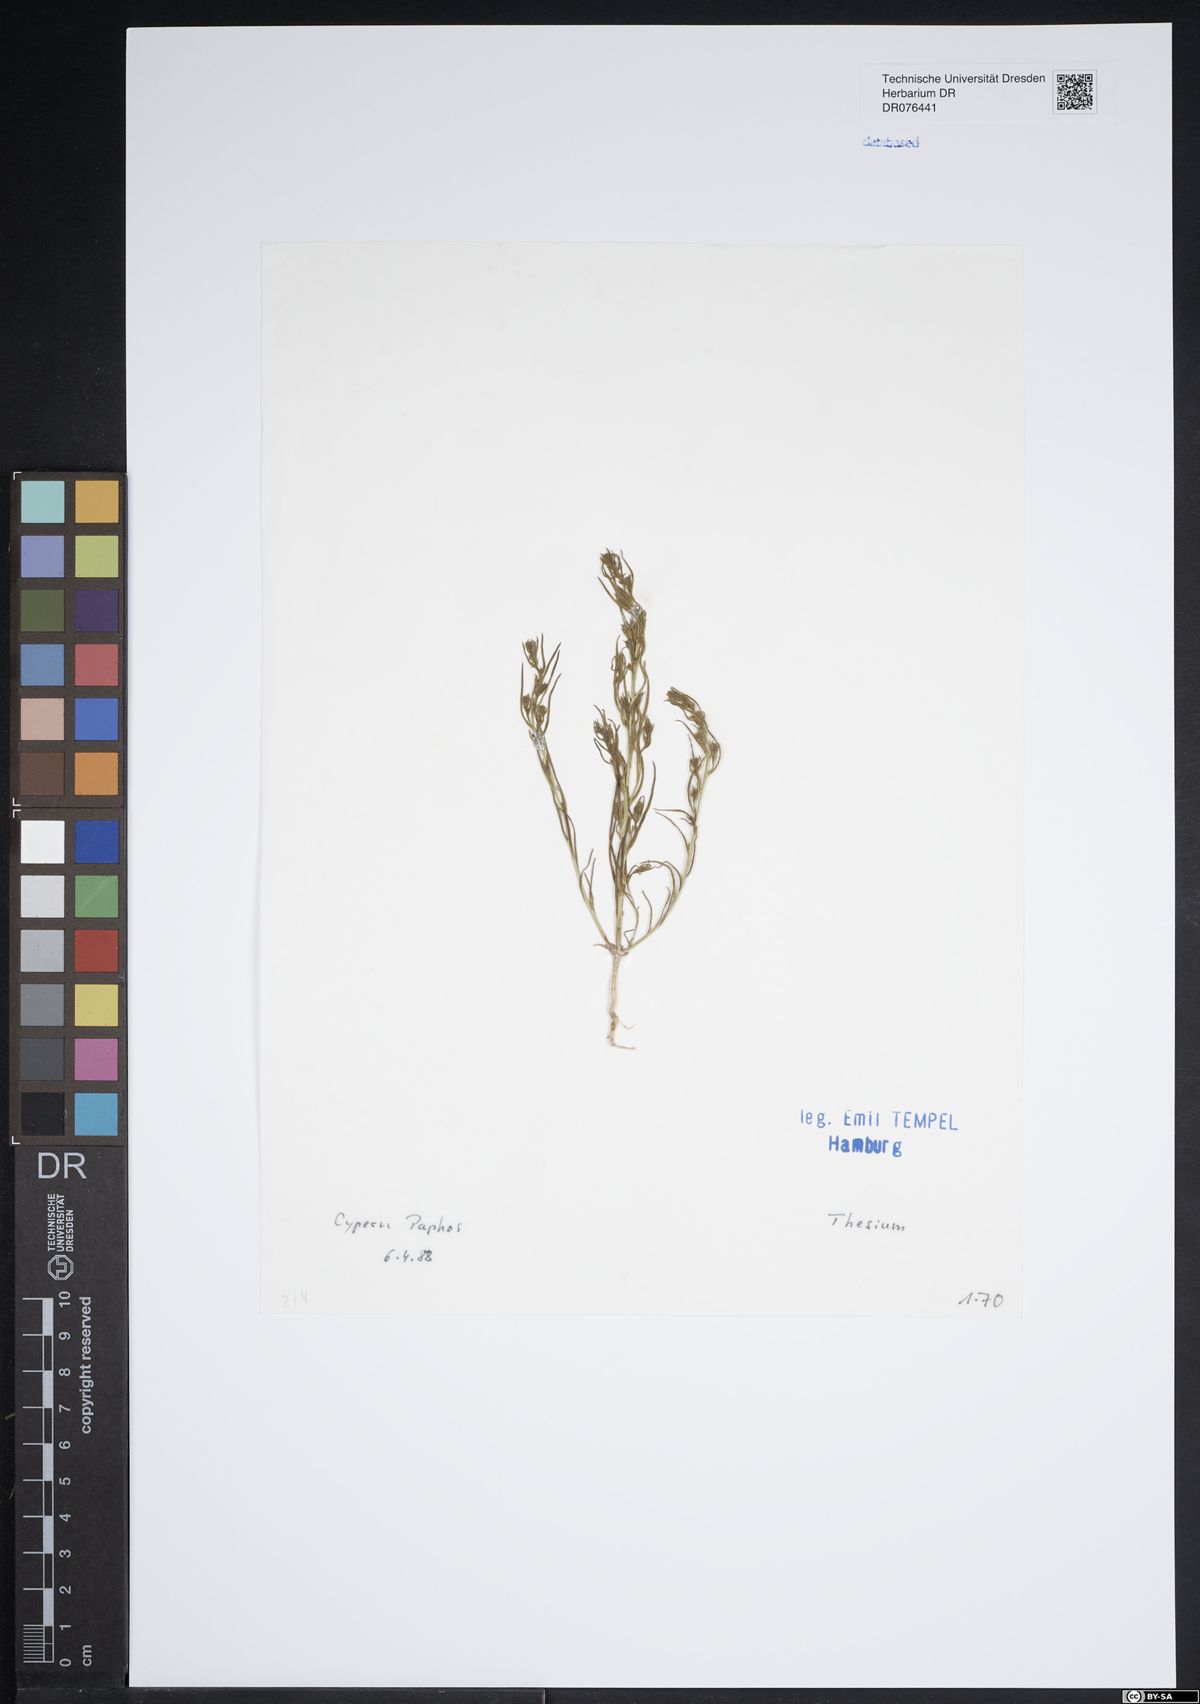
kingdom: Plantae
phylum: Tracheophyta
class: Magnoliopsida
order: Santalales
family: Thesiaceae
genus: Thesium
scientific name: Thesium
